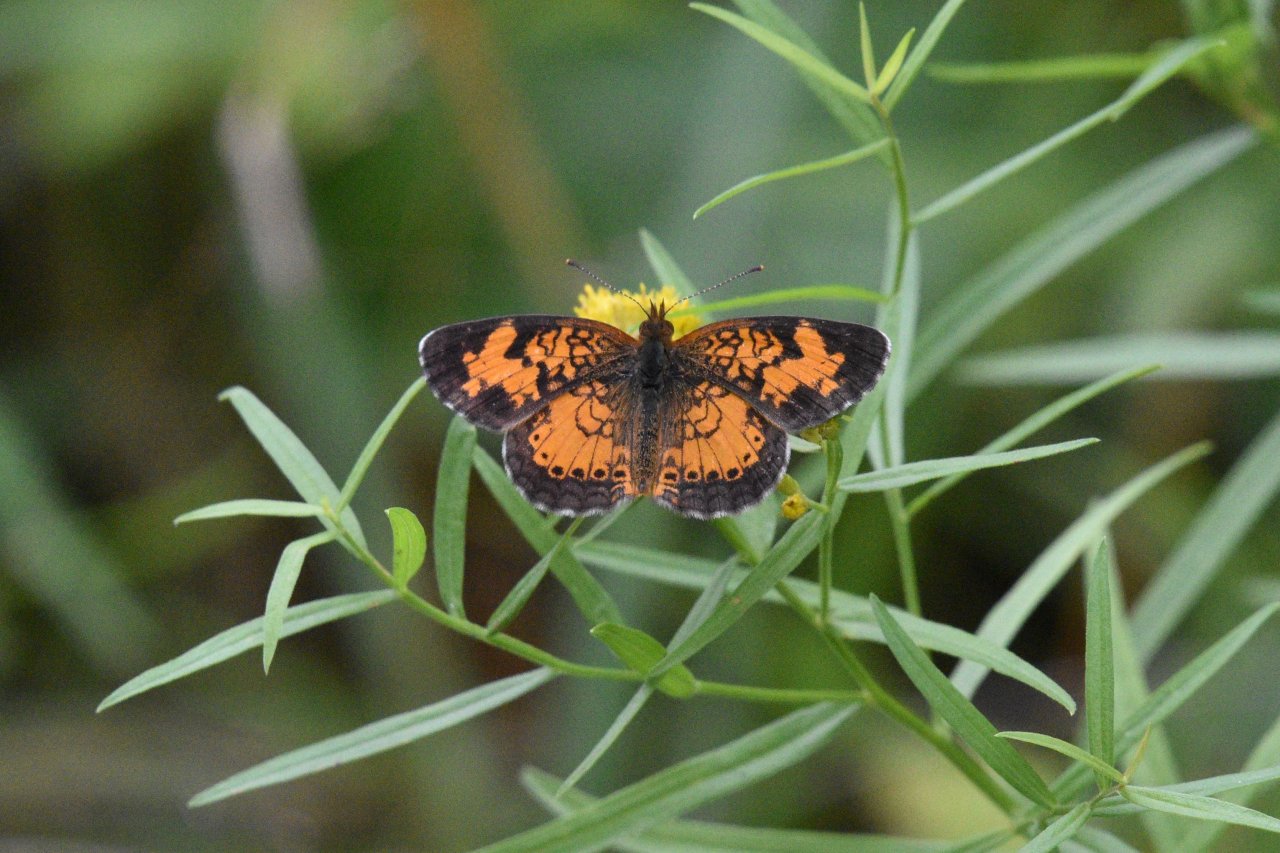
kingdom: Animalia
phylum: Arthropoda
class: Insecta
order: Lepidoptera
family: Nymphalidae
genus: Phyciodes
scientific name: Phyciodes tharos
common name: Northern Crescent
